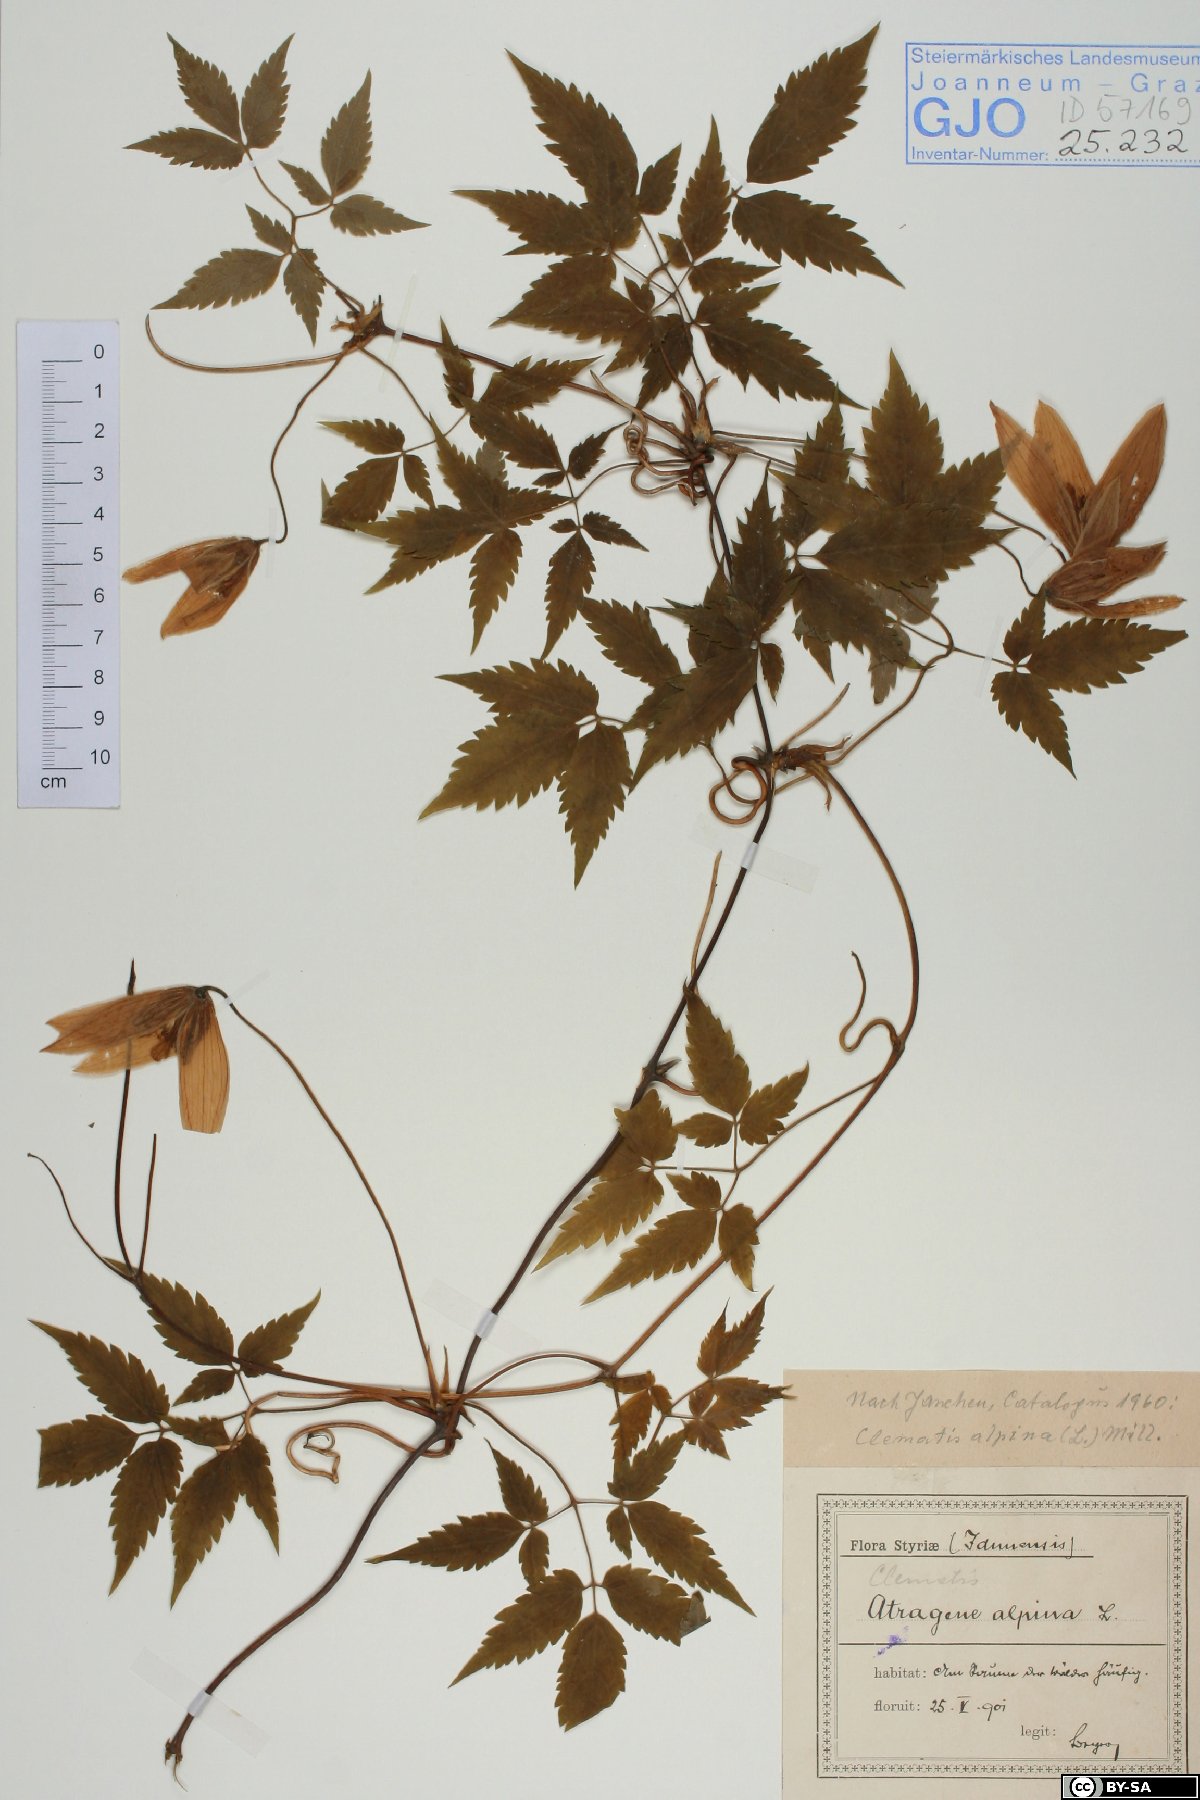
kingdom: Plantae
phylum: Tracheophyta
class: Magnoliopsida
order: Ranunculales
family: Ranunculaceae
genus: Clematis
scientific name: Clematis alpina
